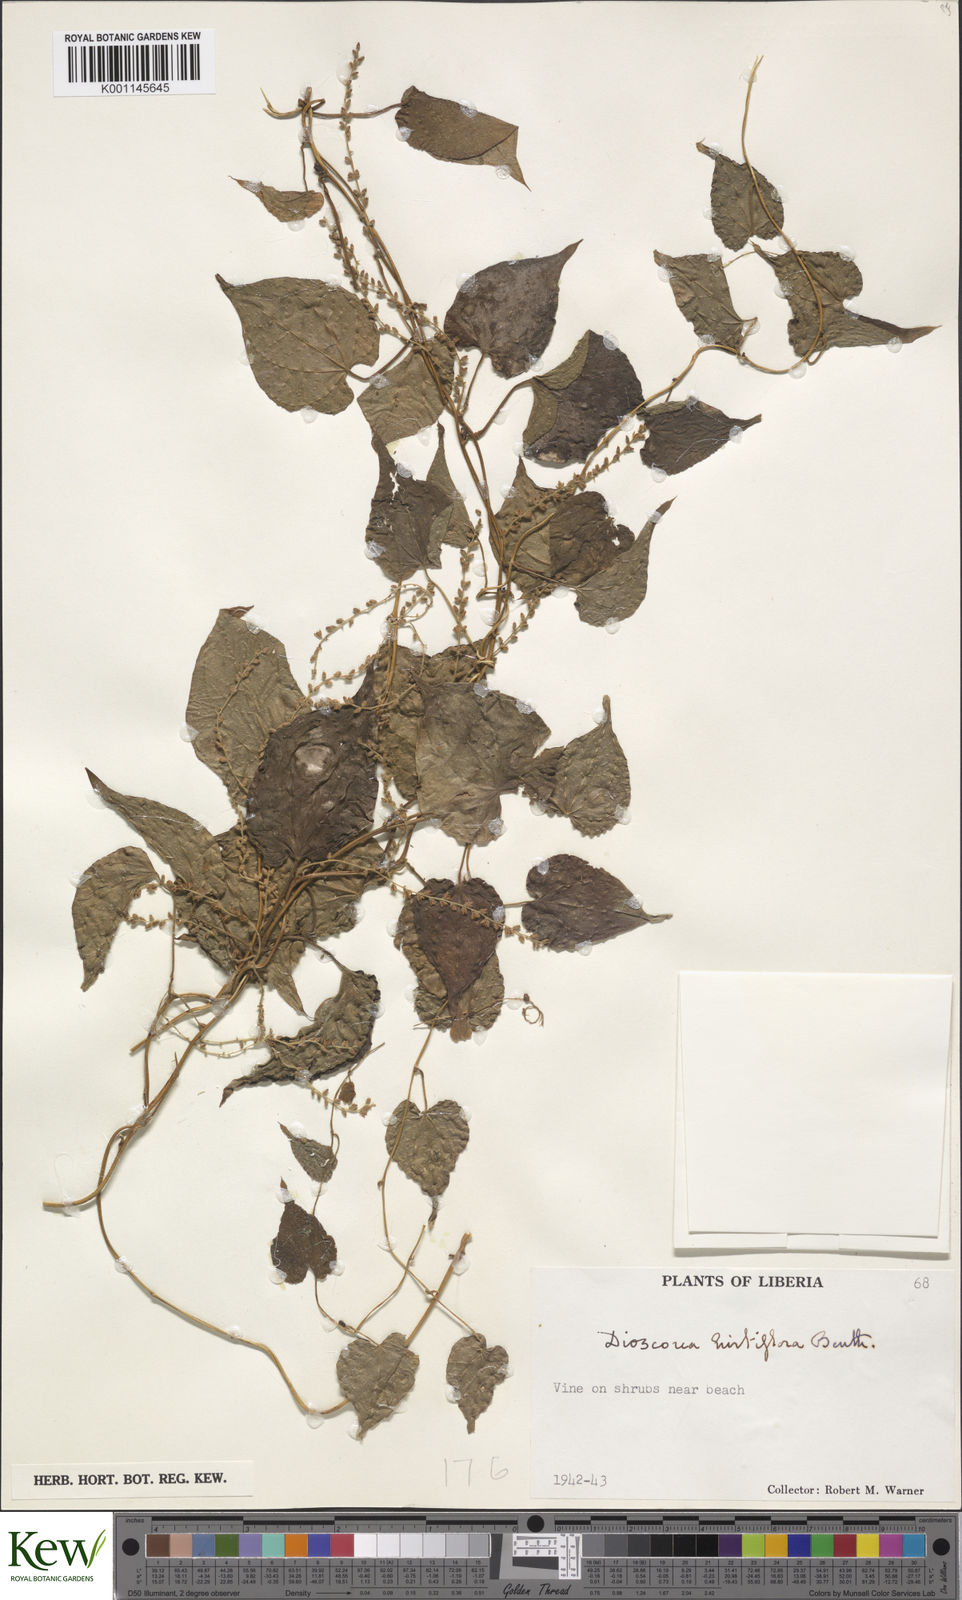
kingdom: Plantae
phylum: Tracheophyta
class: Liliopsida
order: Dioscoreales
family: Dioscoreaceae
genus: Dioscorea
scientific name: Dioscorea hirtiflora
